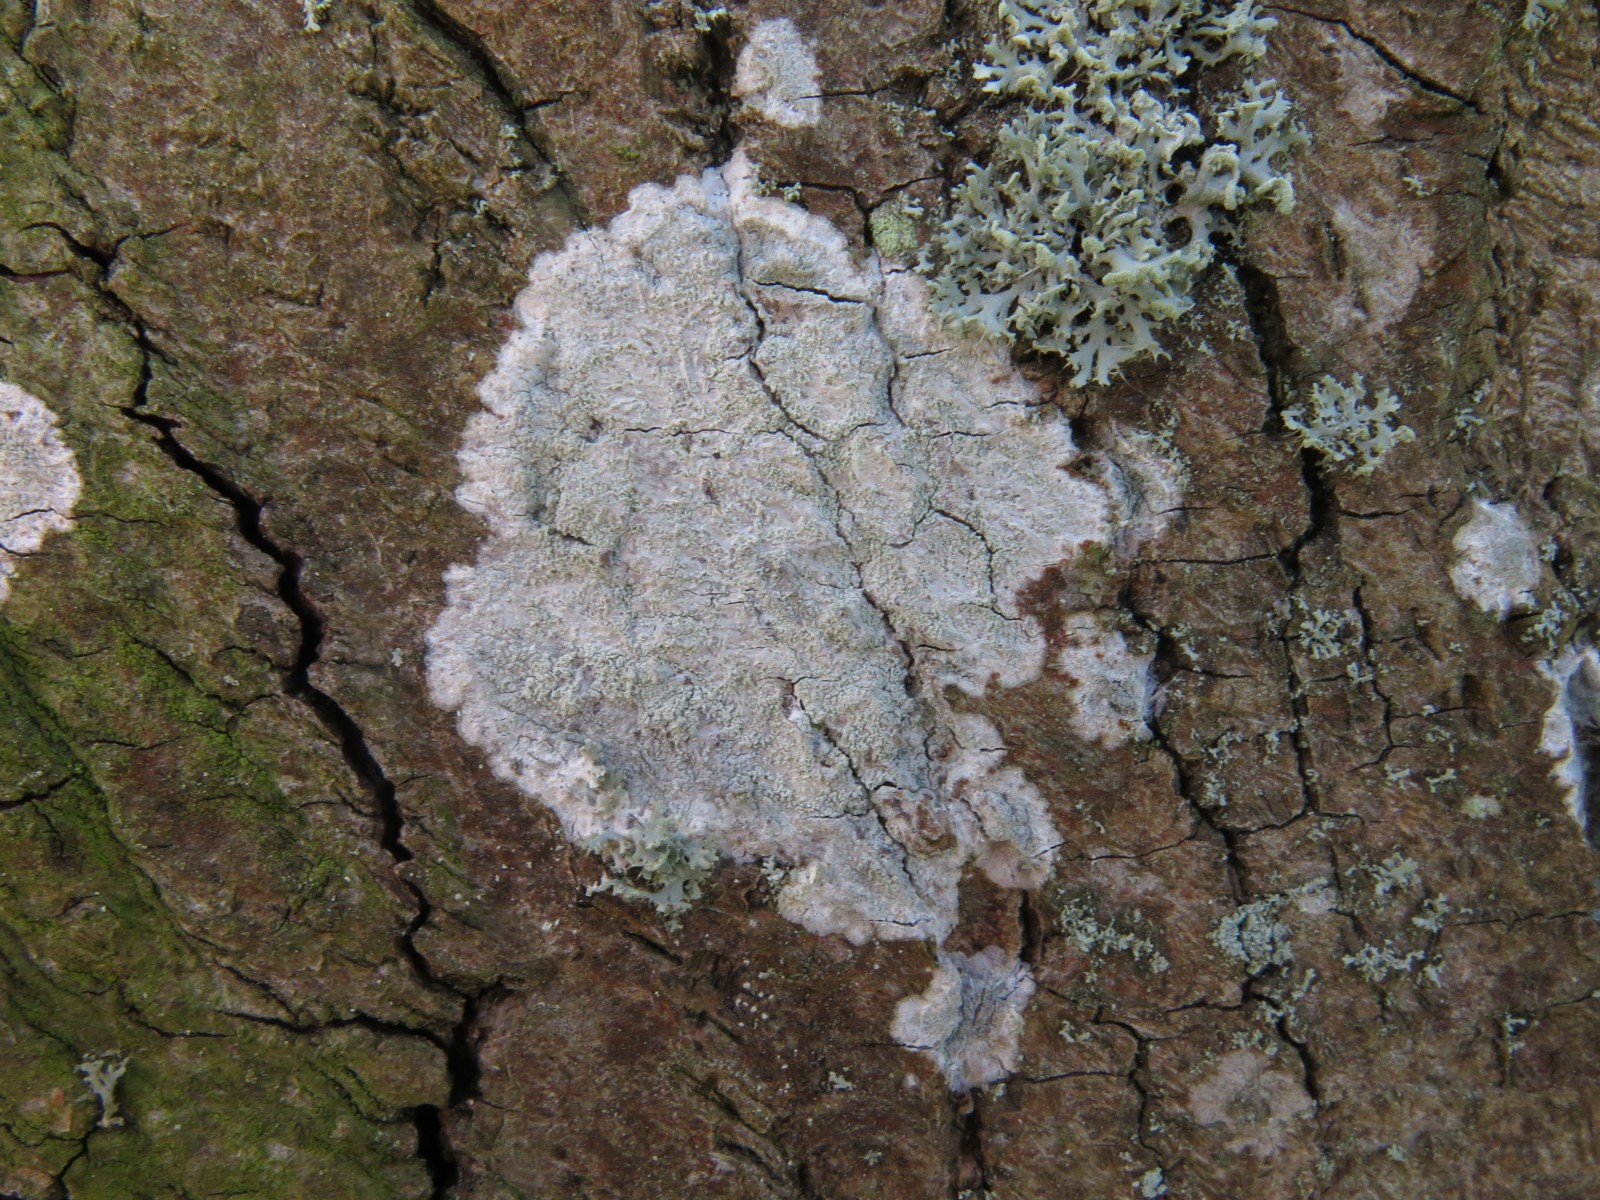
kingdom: Fungi
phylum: Ascomycota
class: Lecanoromycetes
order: Ostropales
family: Phlyctidaceae
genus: Phlyctis
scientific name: Phlyctis argena
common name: almindelig sølvlav
